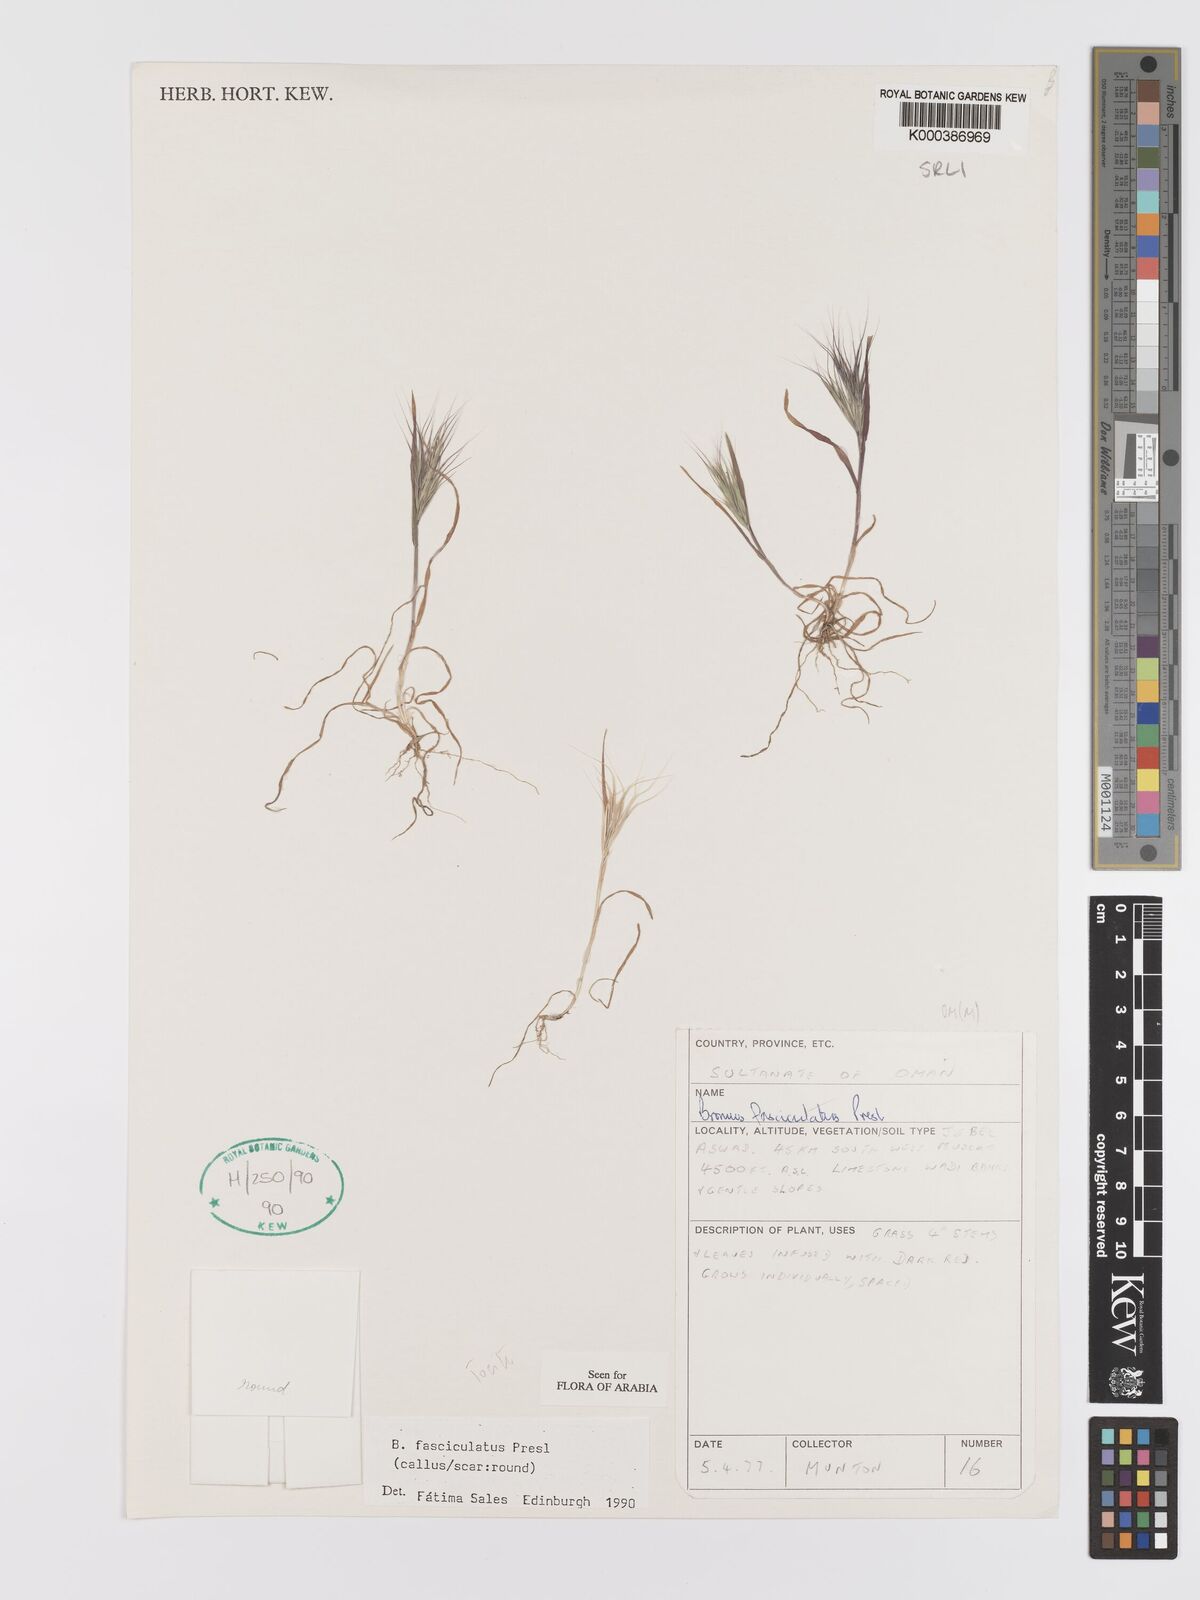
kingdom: Plantae
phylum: Tracheophyta
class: Liliopsida
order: Poales
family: Poaceae
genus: Bromus
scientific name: Bromus fasciculatus
